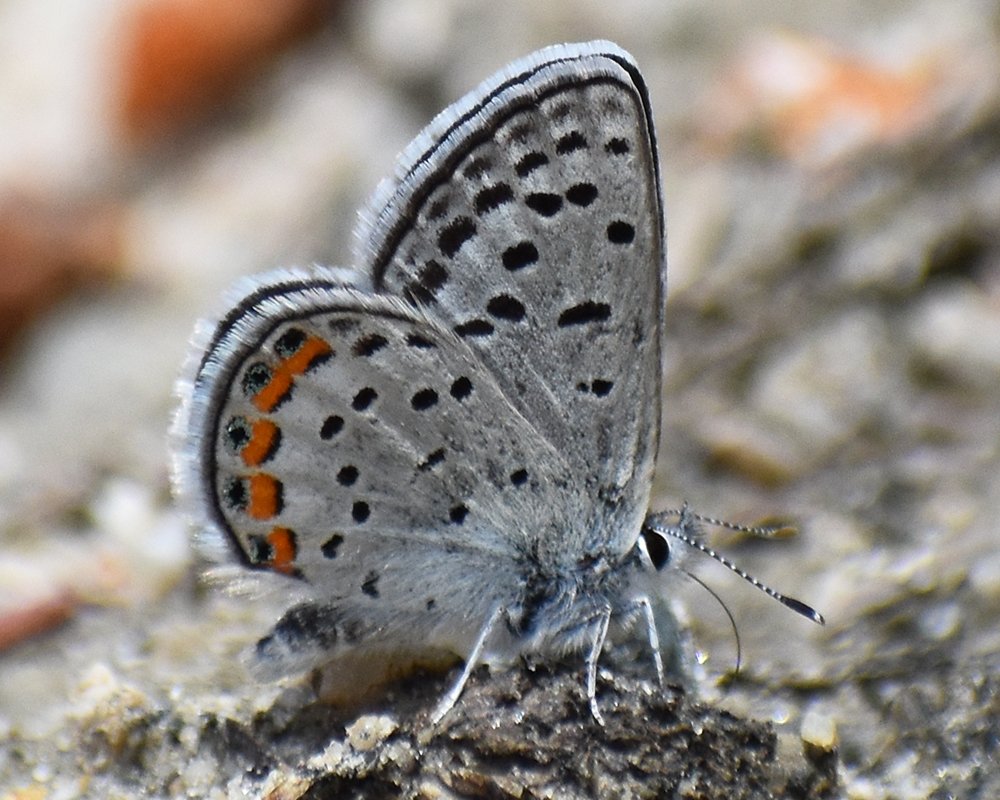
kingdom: Animalia
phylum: Arthropoda
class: Insecta
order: Lepidoptera
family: Lycaenidae
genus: Plebejus
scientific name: Plebejus lupini
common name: Lupine Blue
